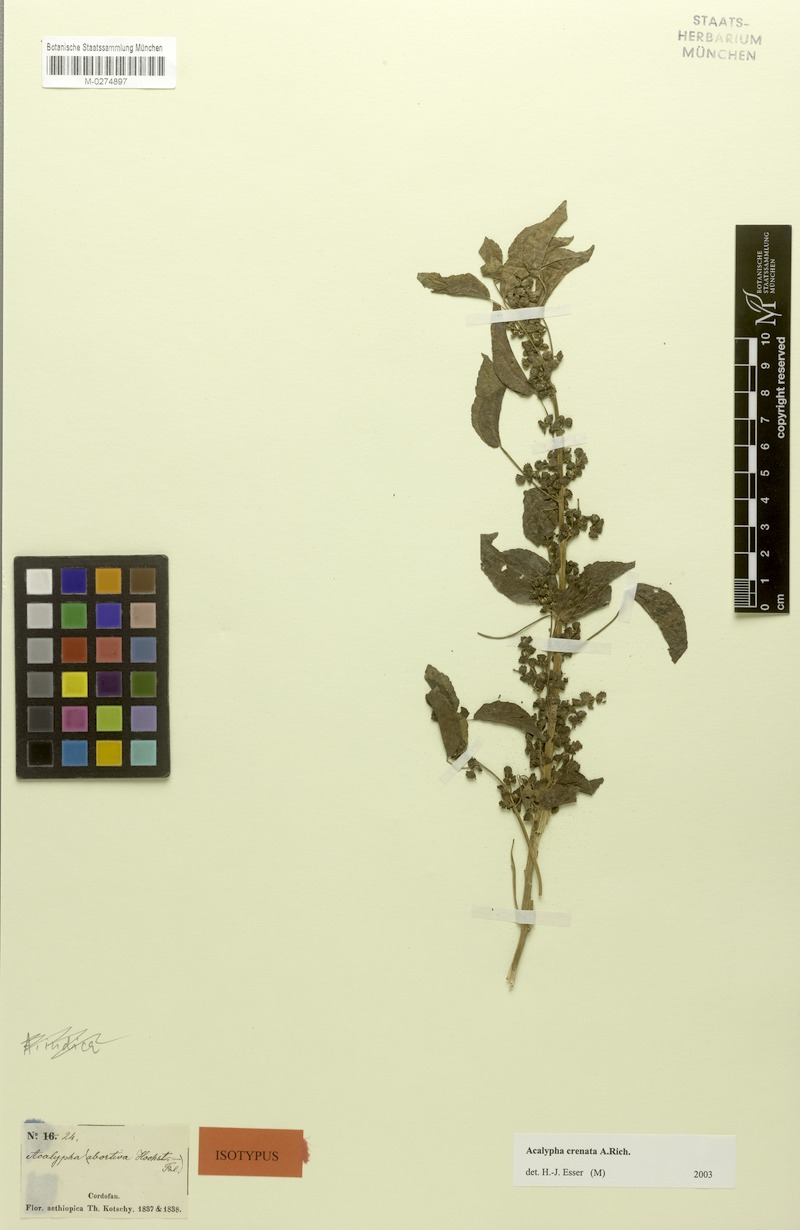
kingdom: Plantae
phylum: Tracheophyta
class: Magnoliopsida
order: Malpighiales
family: Euphorbiaceae
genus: Acalypha
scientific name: Acalypha crenata
